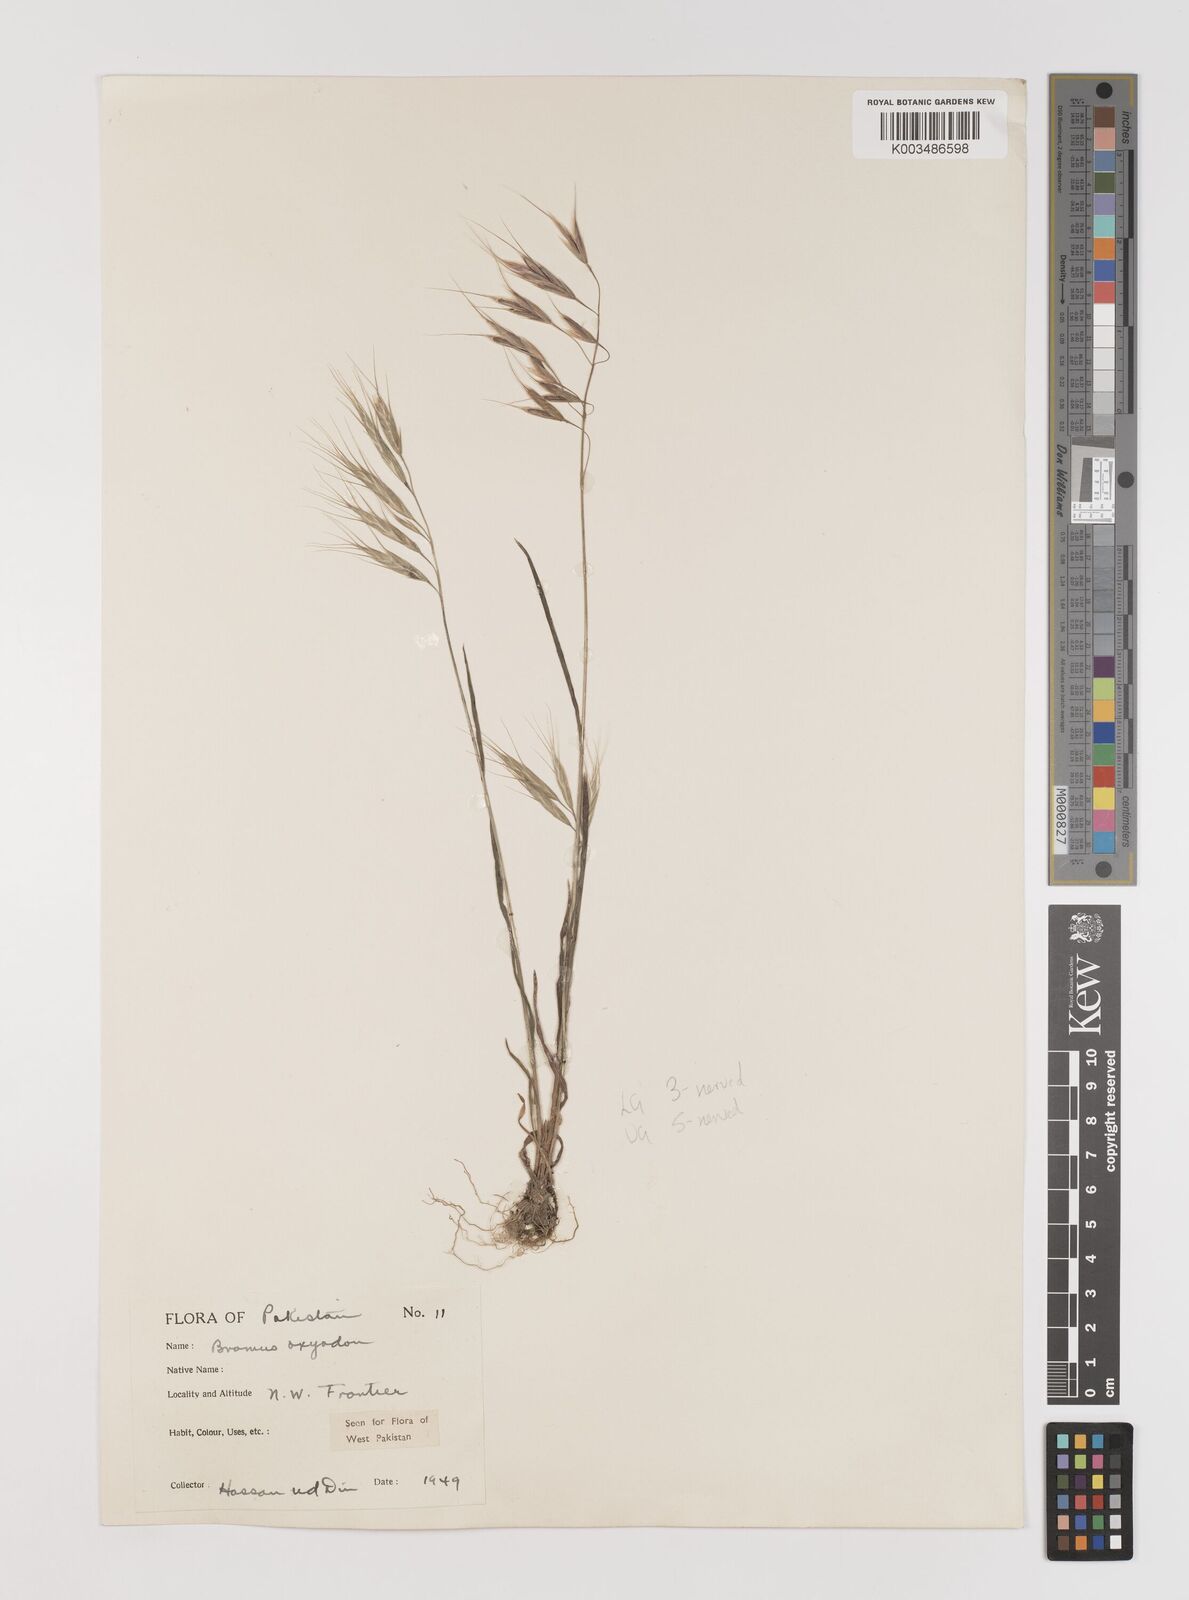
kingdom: Plantae
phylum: Tracheophyta
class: Liliopsida
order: Poales
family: Poaceae
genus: Bromus
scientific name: Bromus oxyodon
